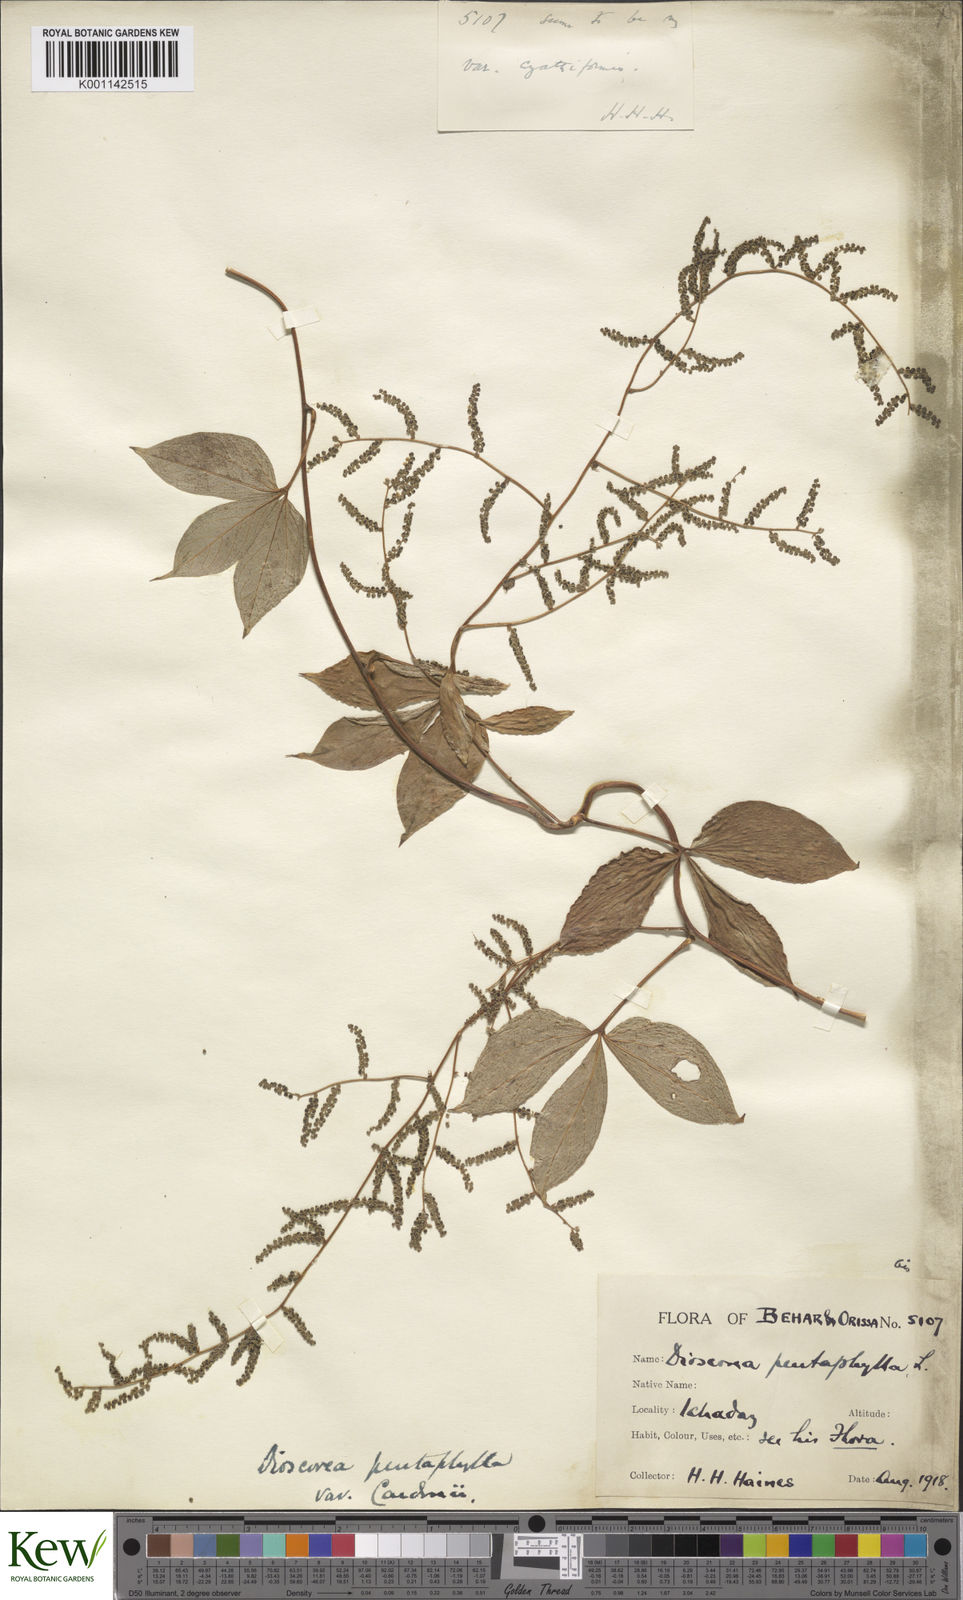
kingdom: Plantae
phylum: Tracheophyta
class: Liliopsida
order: Dioscoreales
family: Dioscoreaceae
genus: Dioscorea
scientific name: Dioscorea pentaphylla
